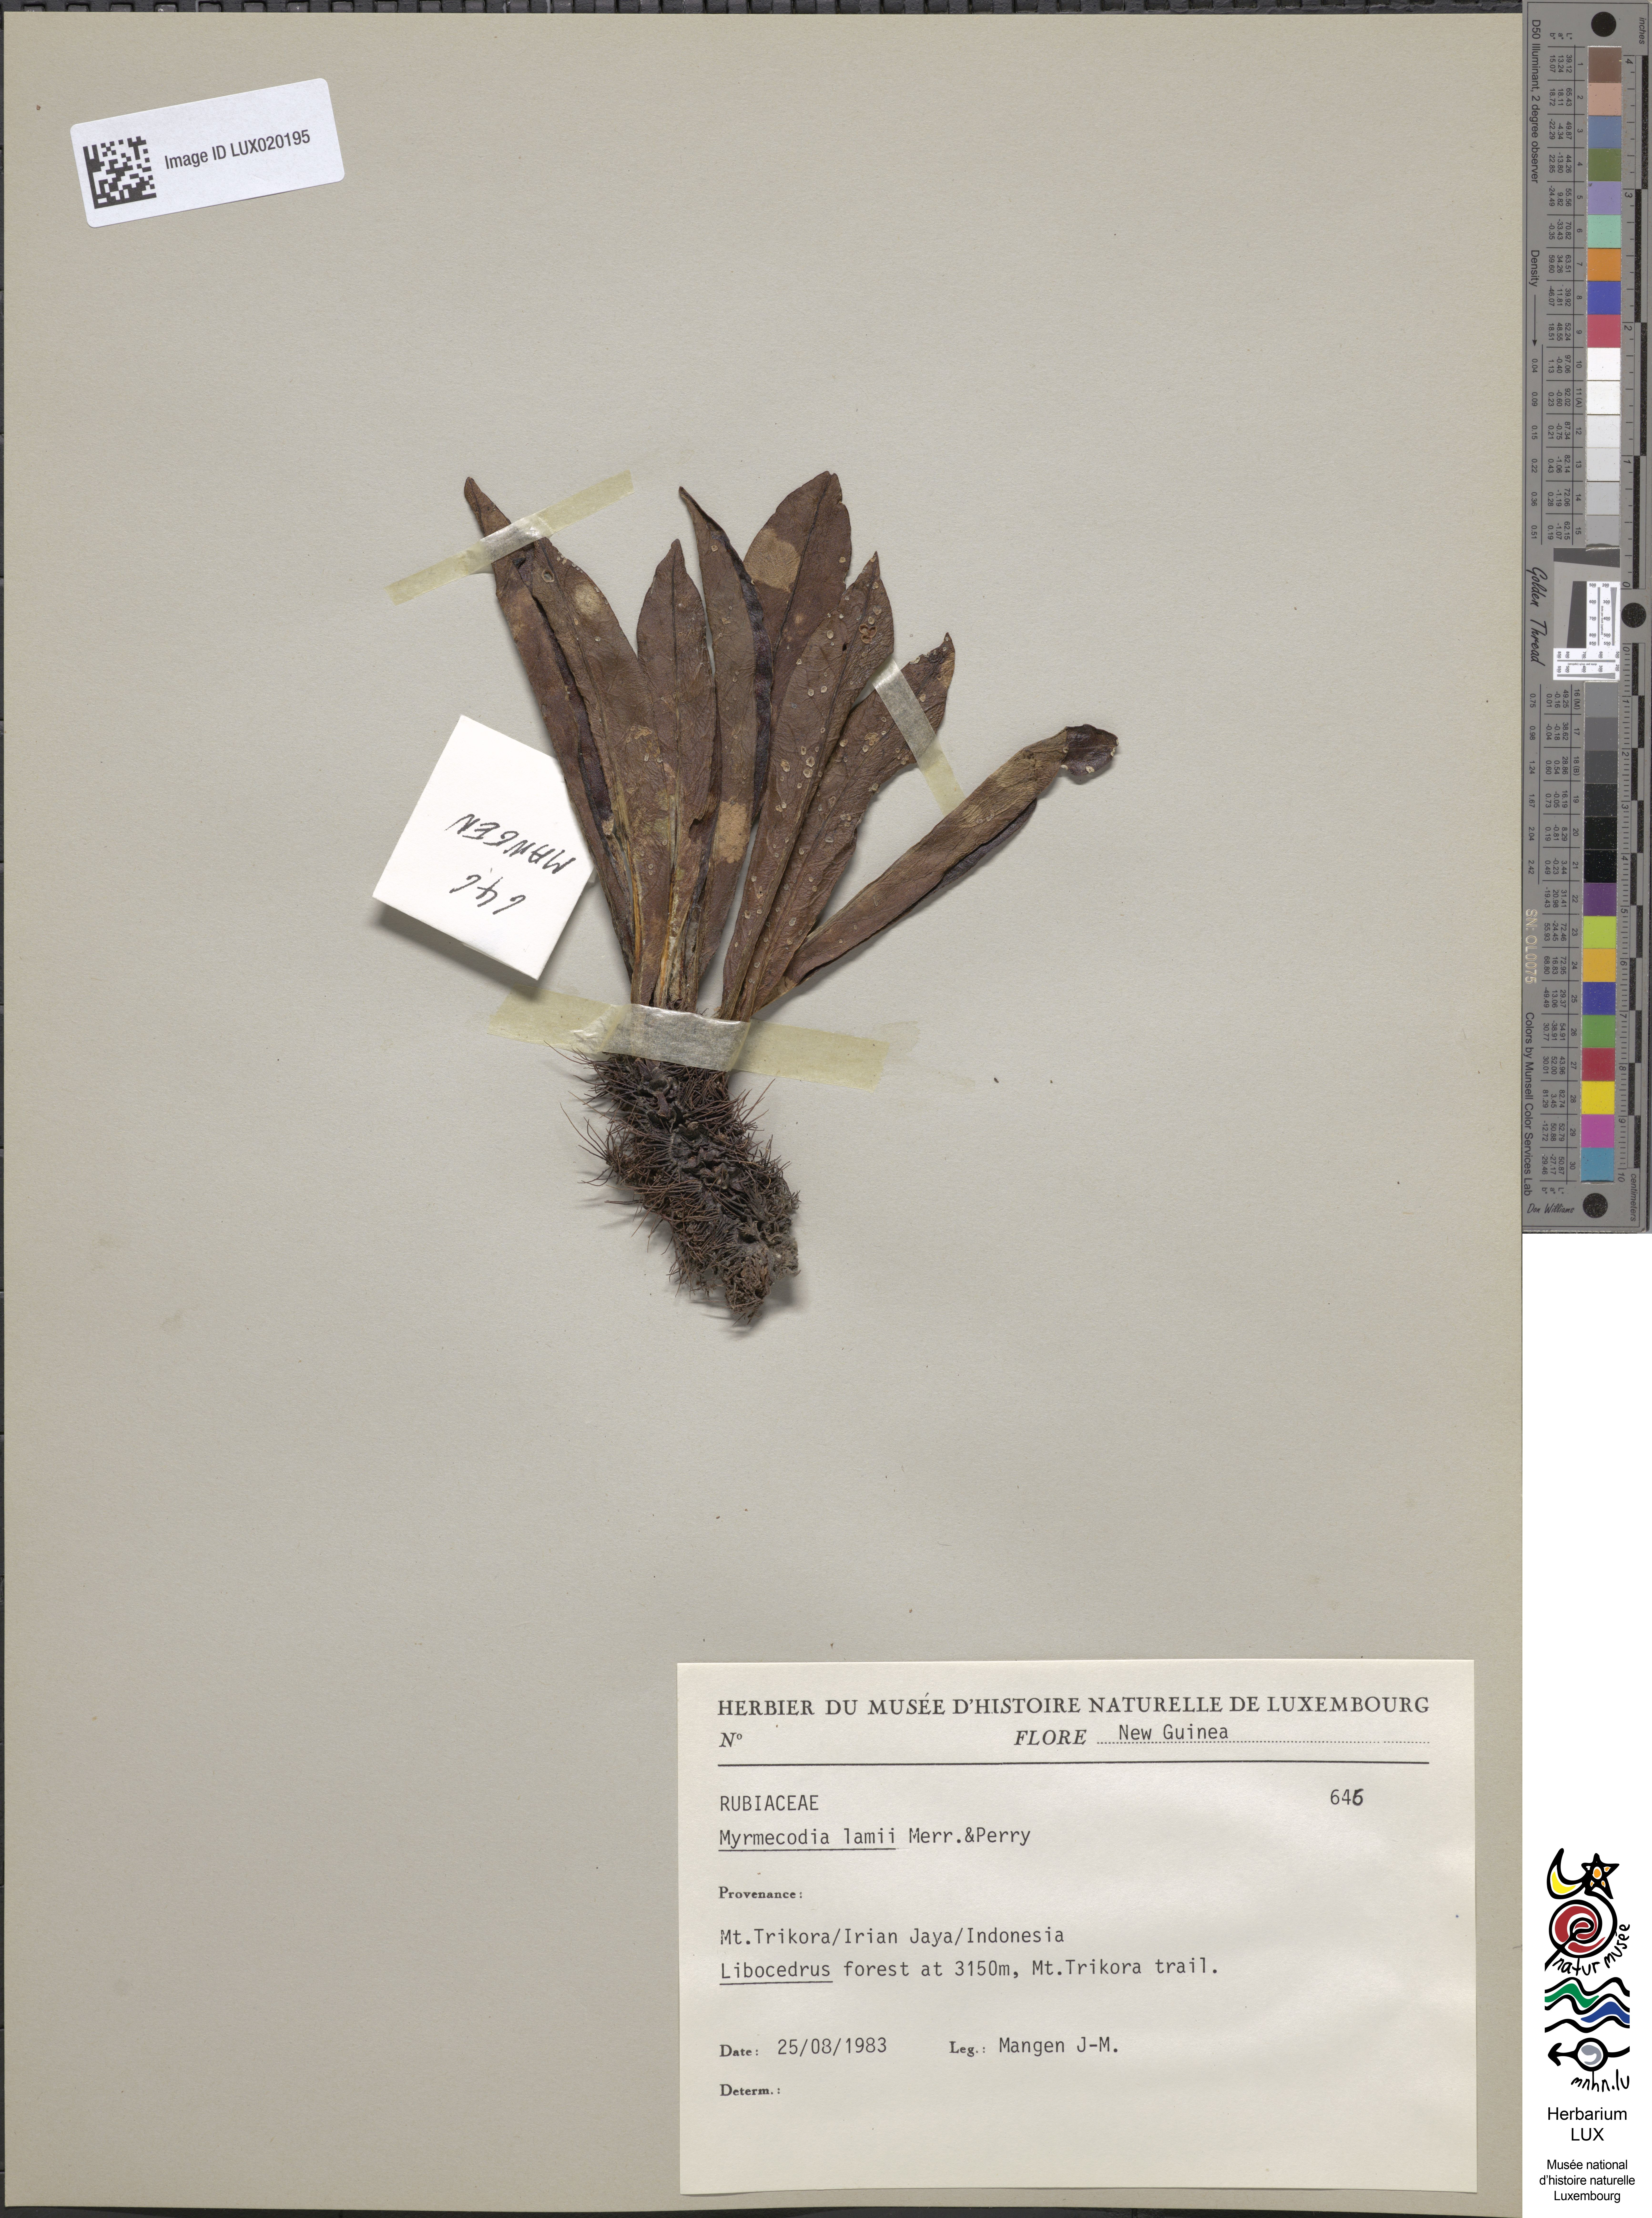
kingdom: Plantae
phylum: Tracheophyta
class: Magnoliopsida
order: Gentianales
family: Rubiaceae
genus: Myrmecodia
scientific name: Myrmecodia lamii
